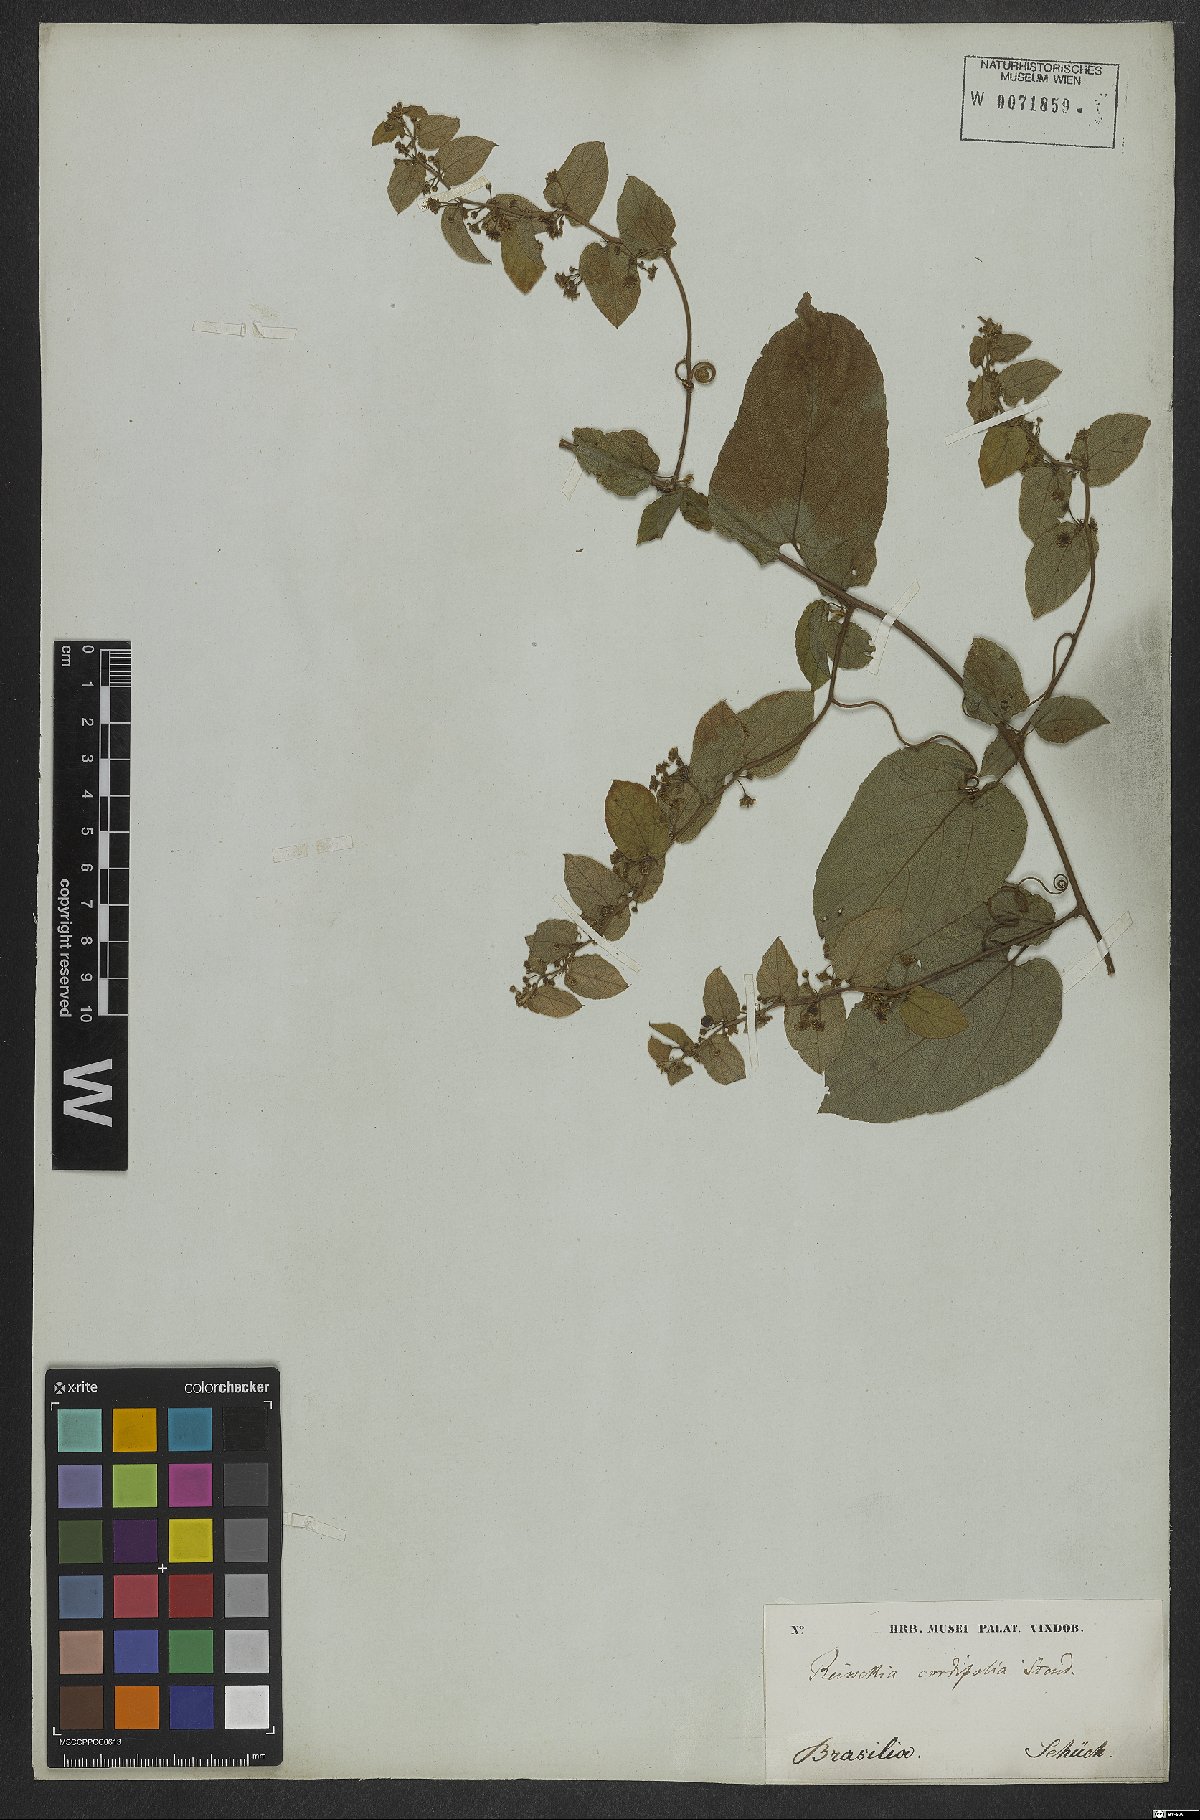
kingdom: Plantae
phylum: Tracheophyta
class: Magnoliopsida
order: Rosales
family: Rhamnaceae
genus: Reissekia
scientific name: Reissekia smilacina
